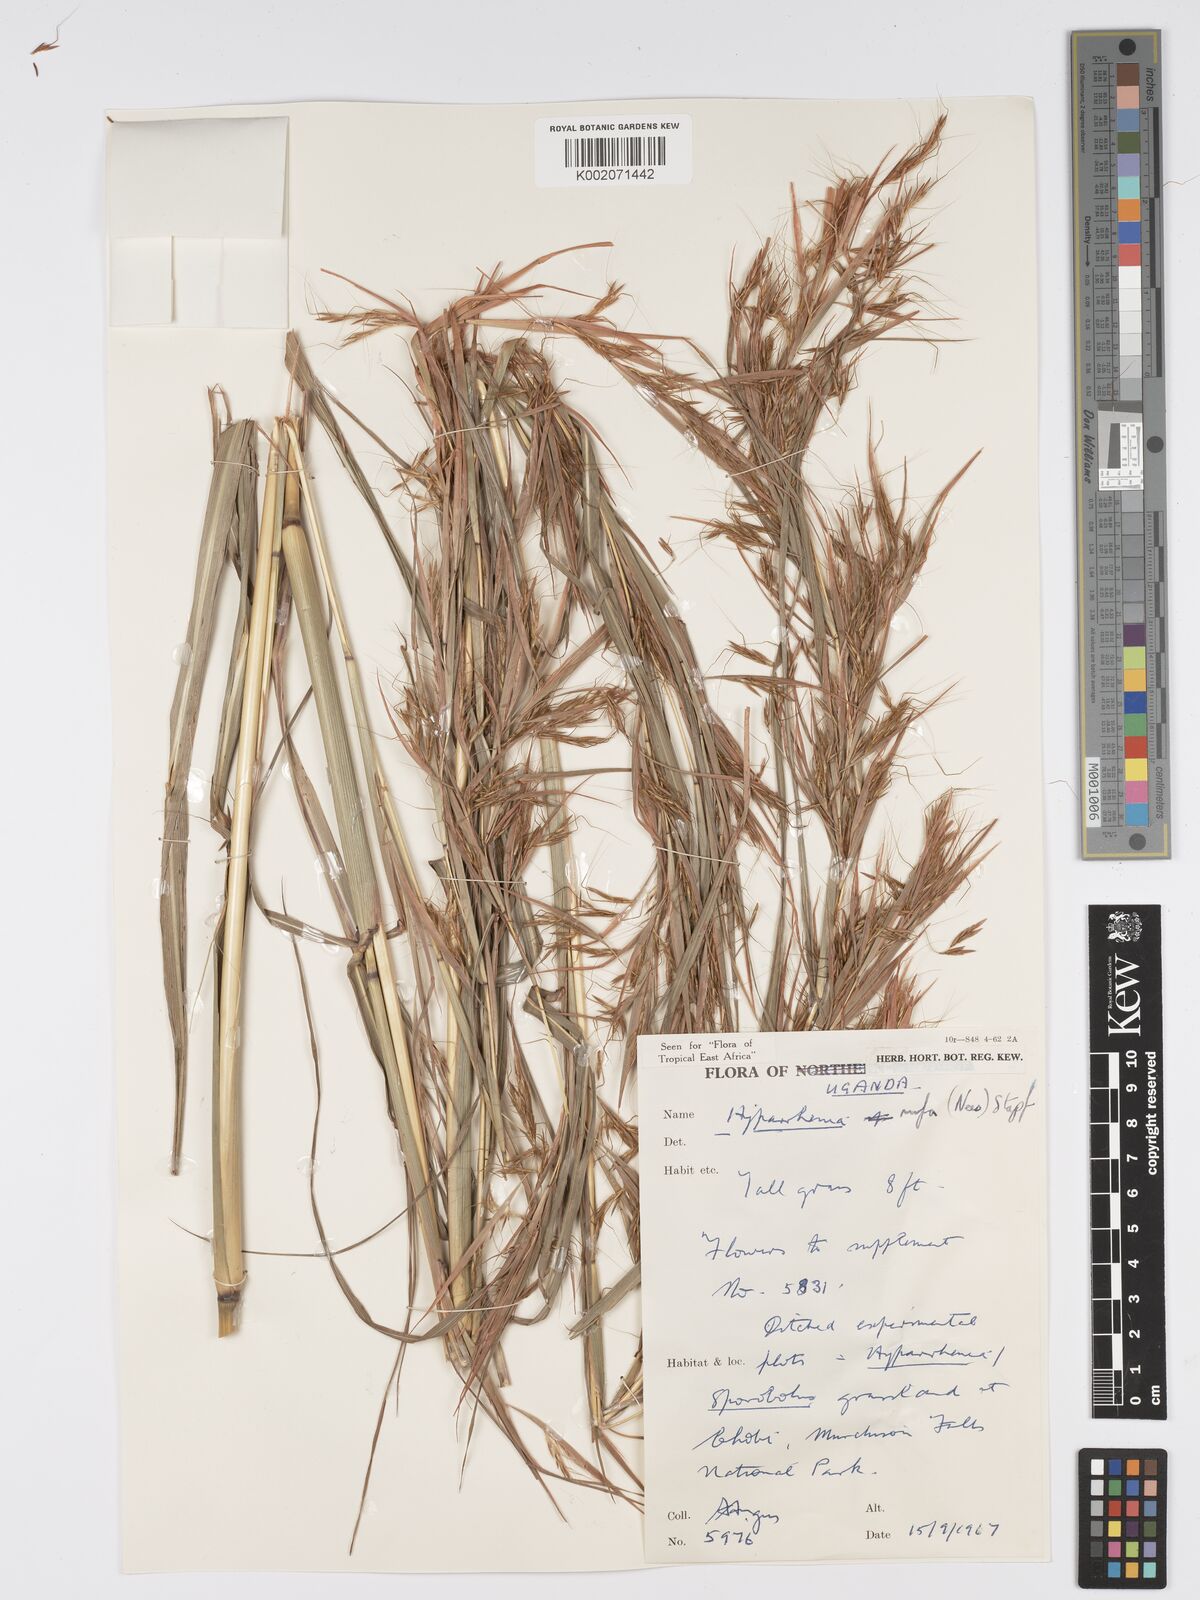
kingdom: Plantae
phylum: Tracheophyta
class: Liliopsida
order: Poales
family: Poaceae
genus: Hyparrhenia
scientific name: Hyparrhenia rufa
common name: Jaraguagrass
